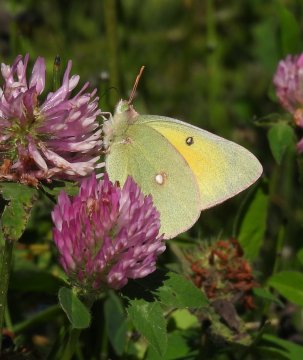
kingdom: Animalia
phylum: Arthropoda
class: Insecta
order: Lepidoptera
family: Pieridae
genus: Colias
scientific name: Colias interior
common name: Pink-edged Sulphur
